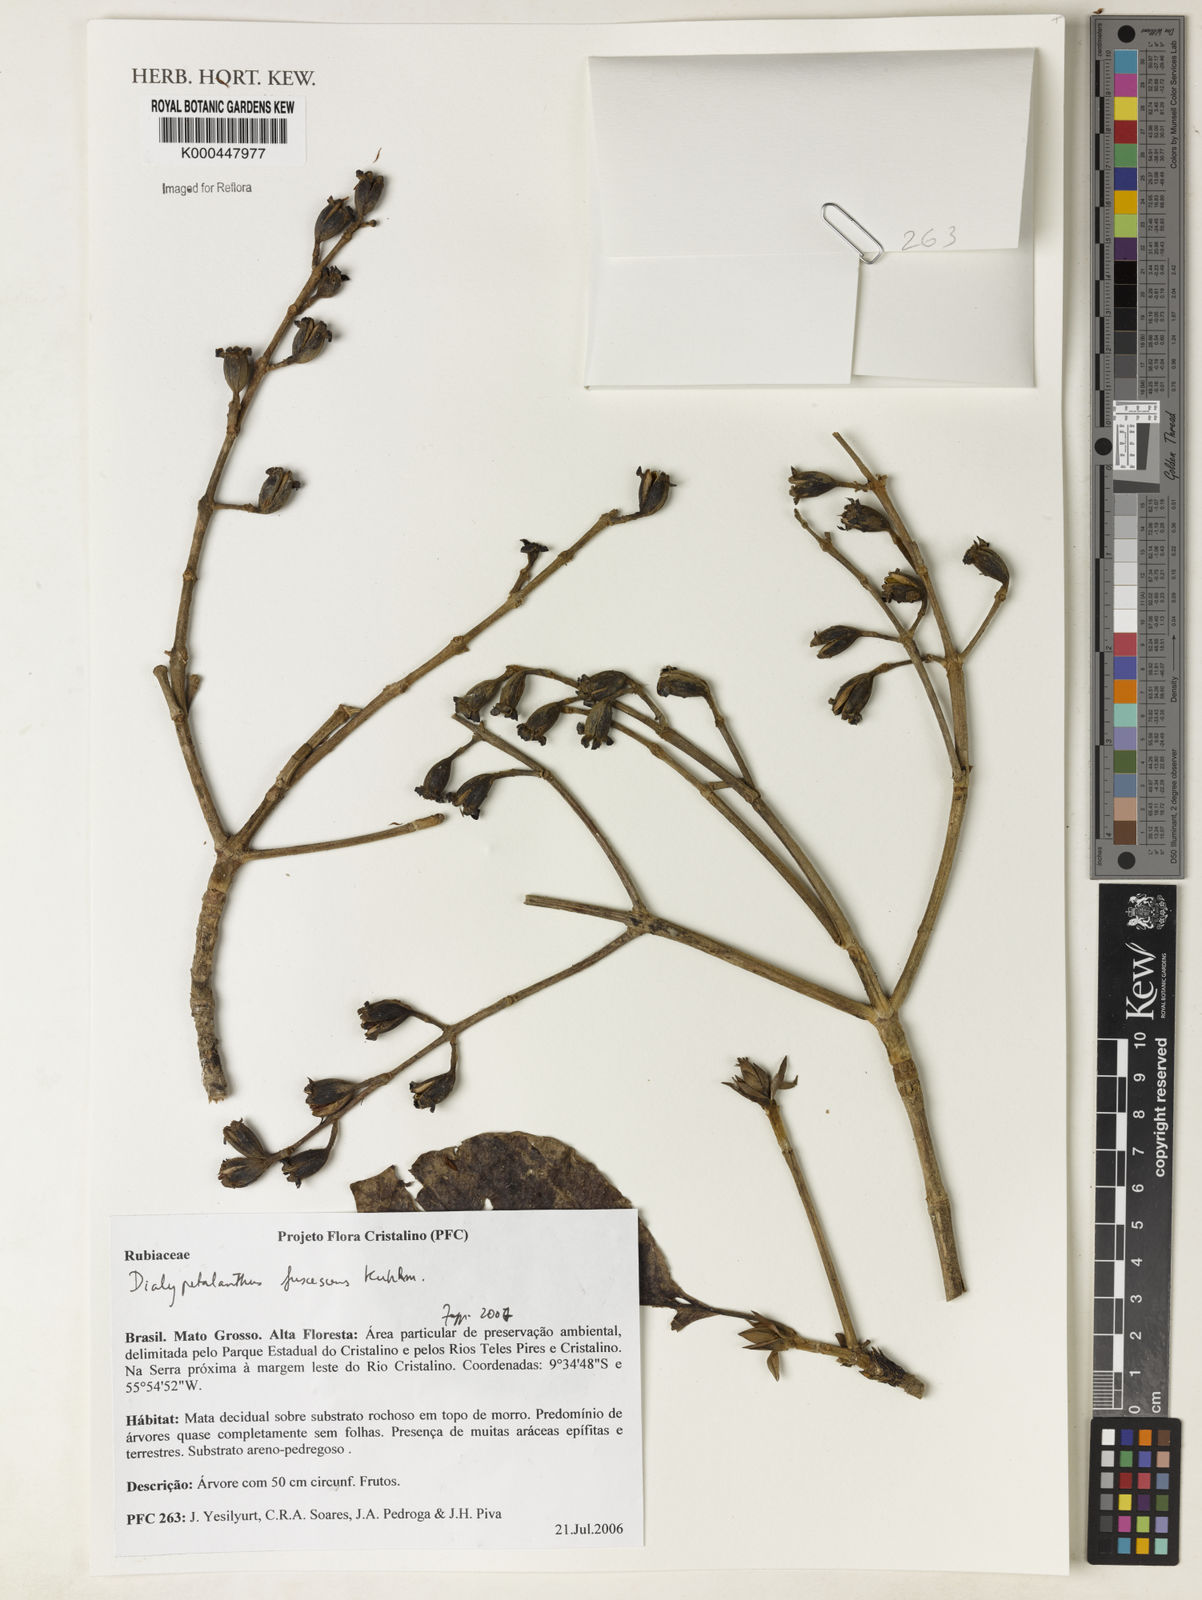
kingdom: Plantae
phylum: Tracheophyta
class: Magnoliopsida
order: Gentianales
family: Rubiaceae
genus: Dialypetalanthus
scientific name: Dialypetalanthus fuscescens
